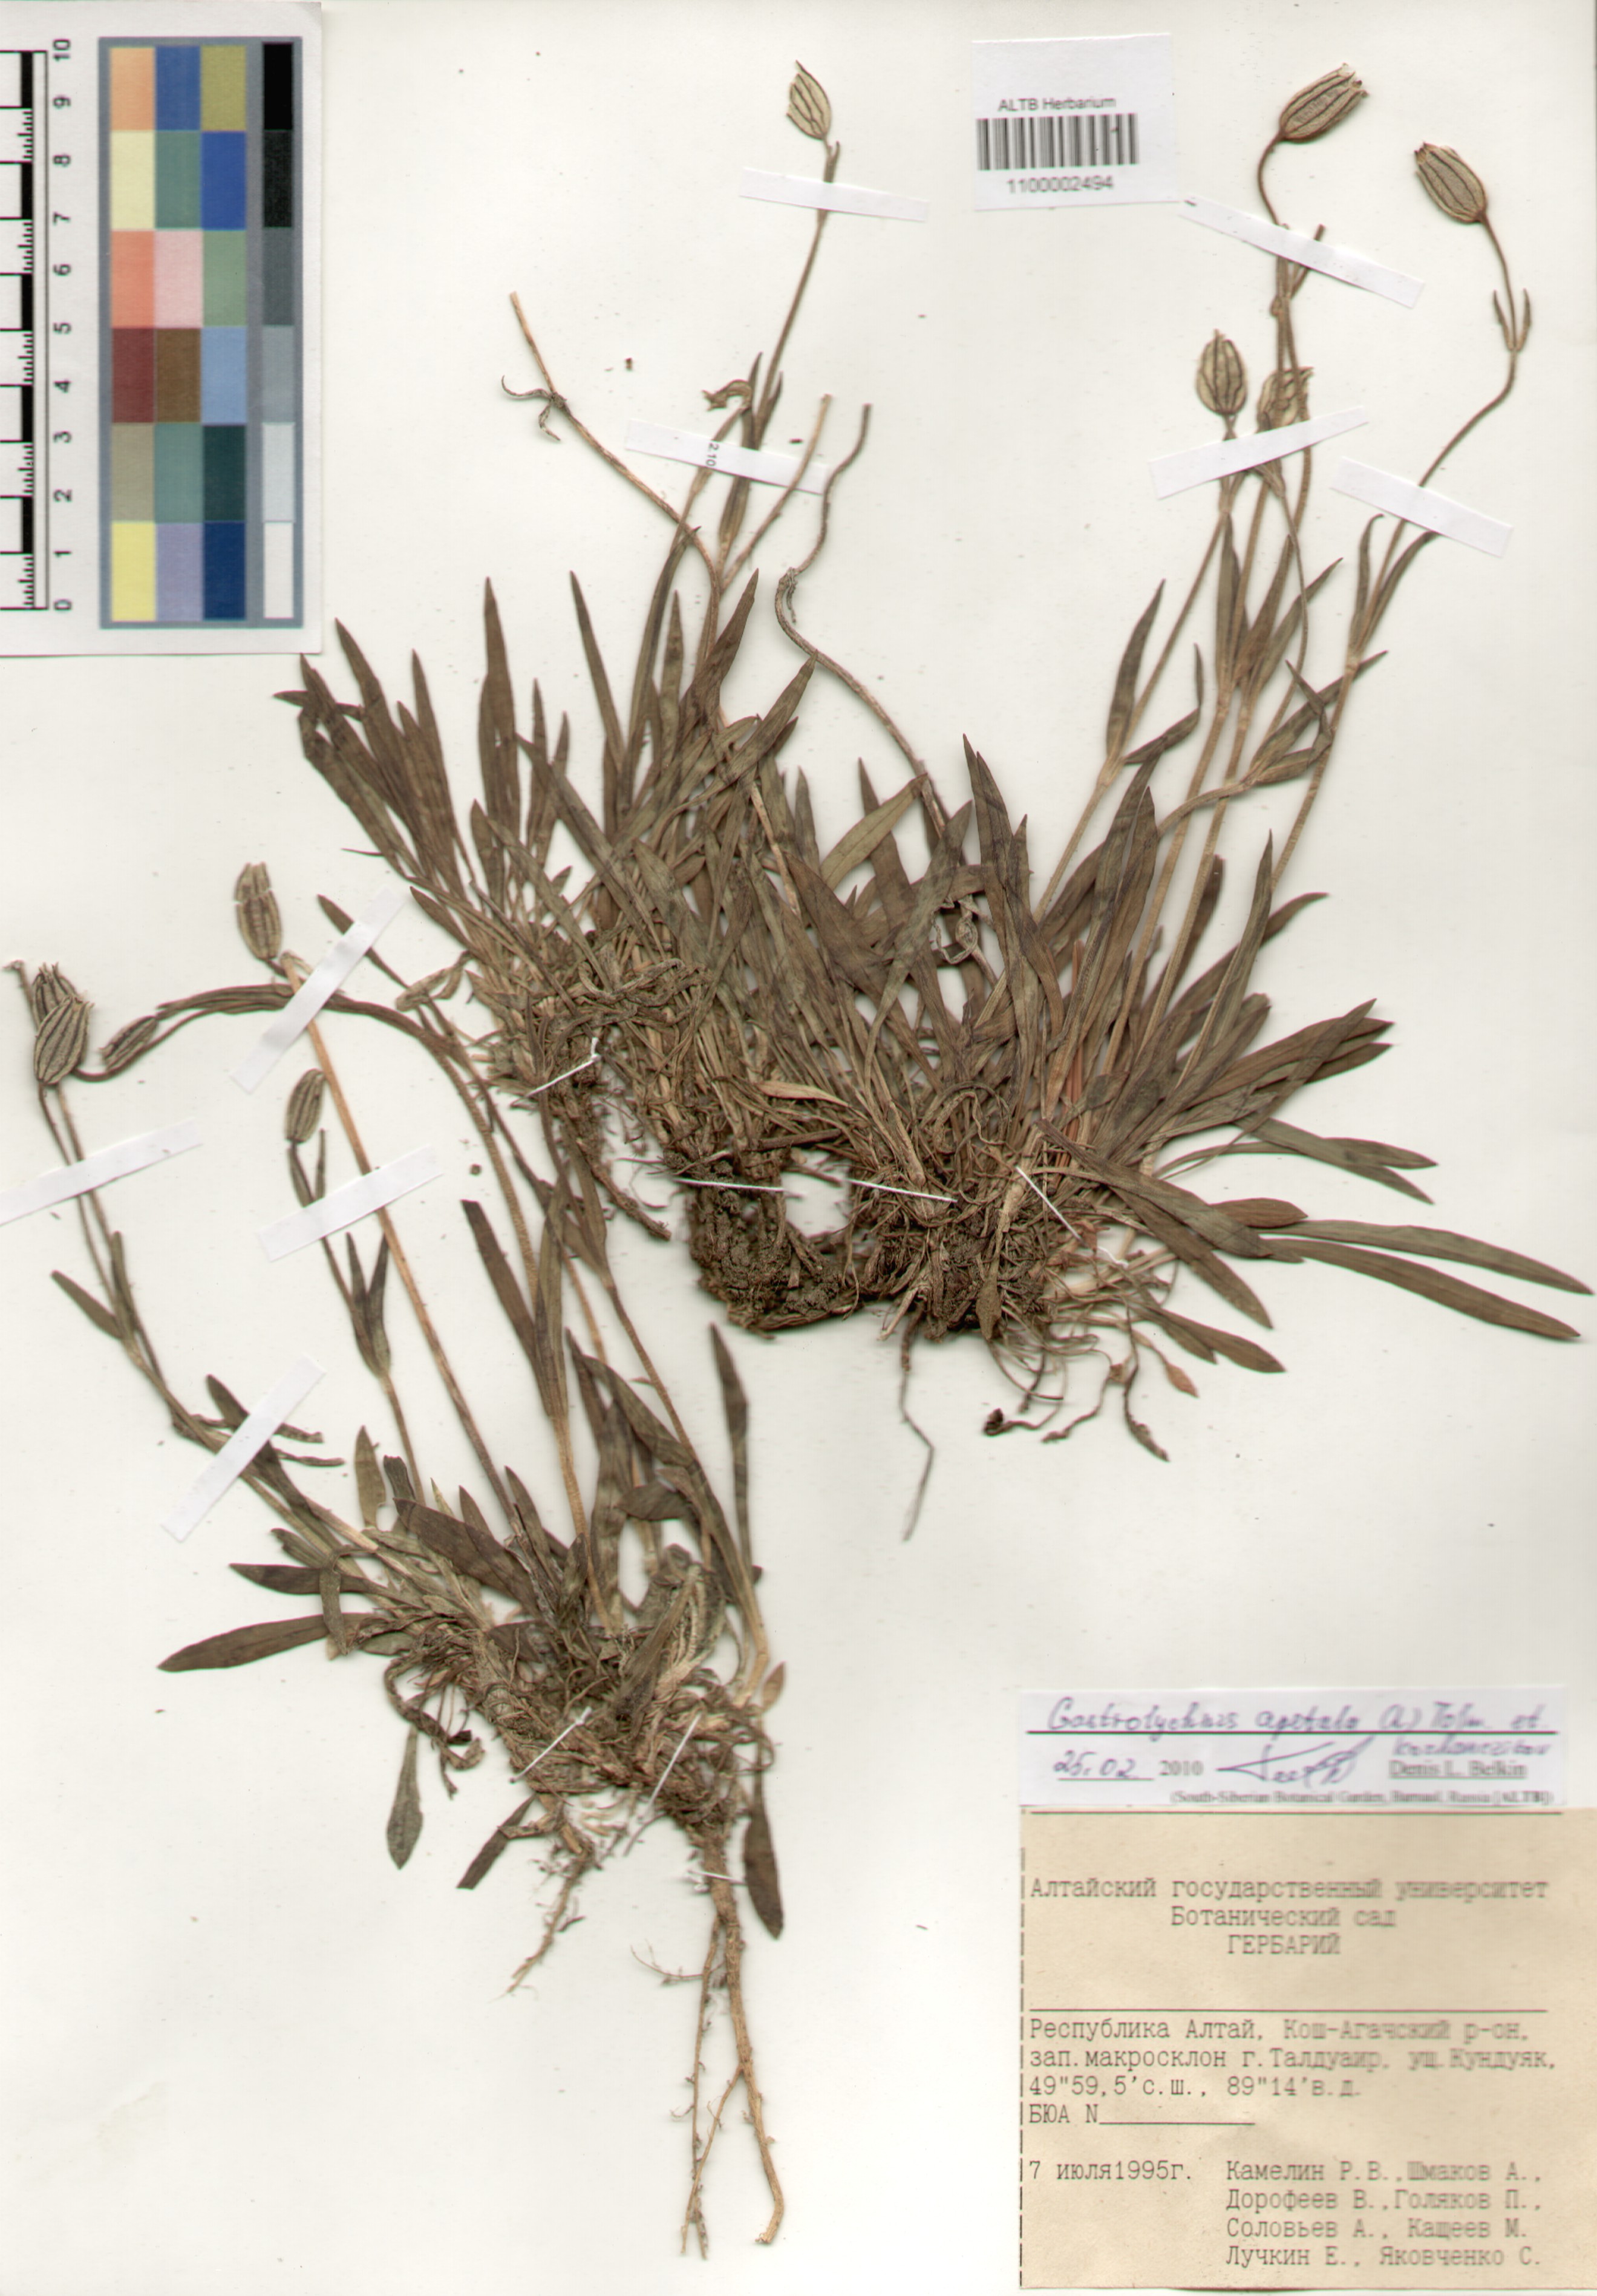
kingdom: Plantae
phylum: Tracheophyta
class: Magnoliopsida
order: Caryophyllales
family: Caryophyllaceae
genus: Silene
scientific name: Silene wahlbergella
